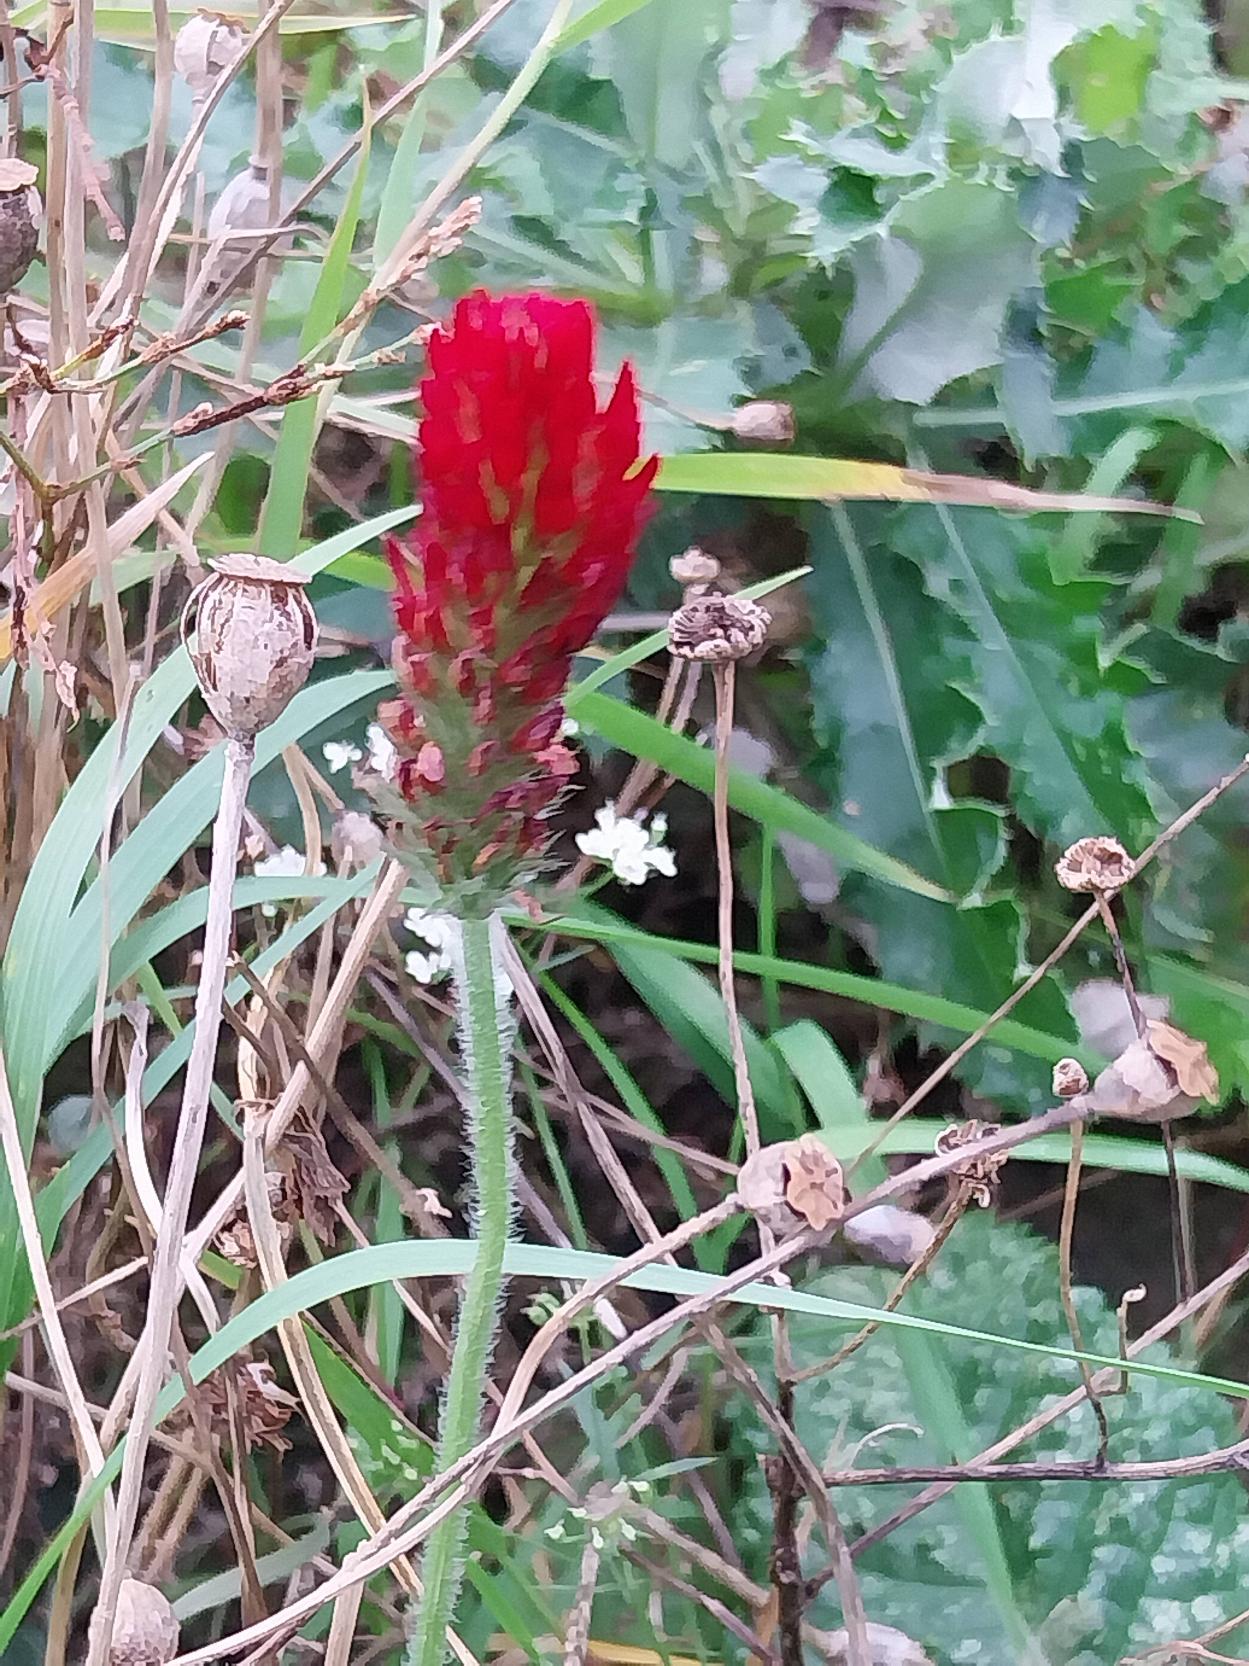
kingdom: Plantae
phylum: Tracheophyta
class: Magnoliopsida
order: Fabales
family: Fabaceae
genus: Trifolium
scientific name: Trifolium incarnatum
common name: Blod-kløver
